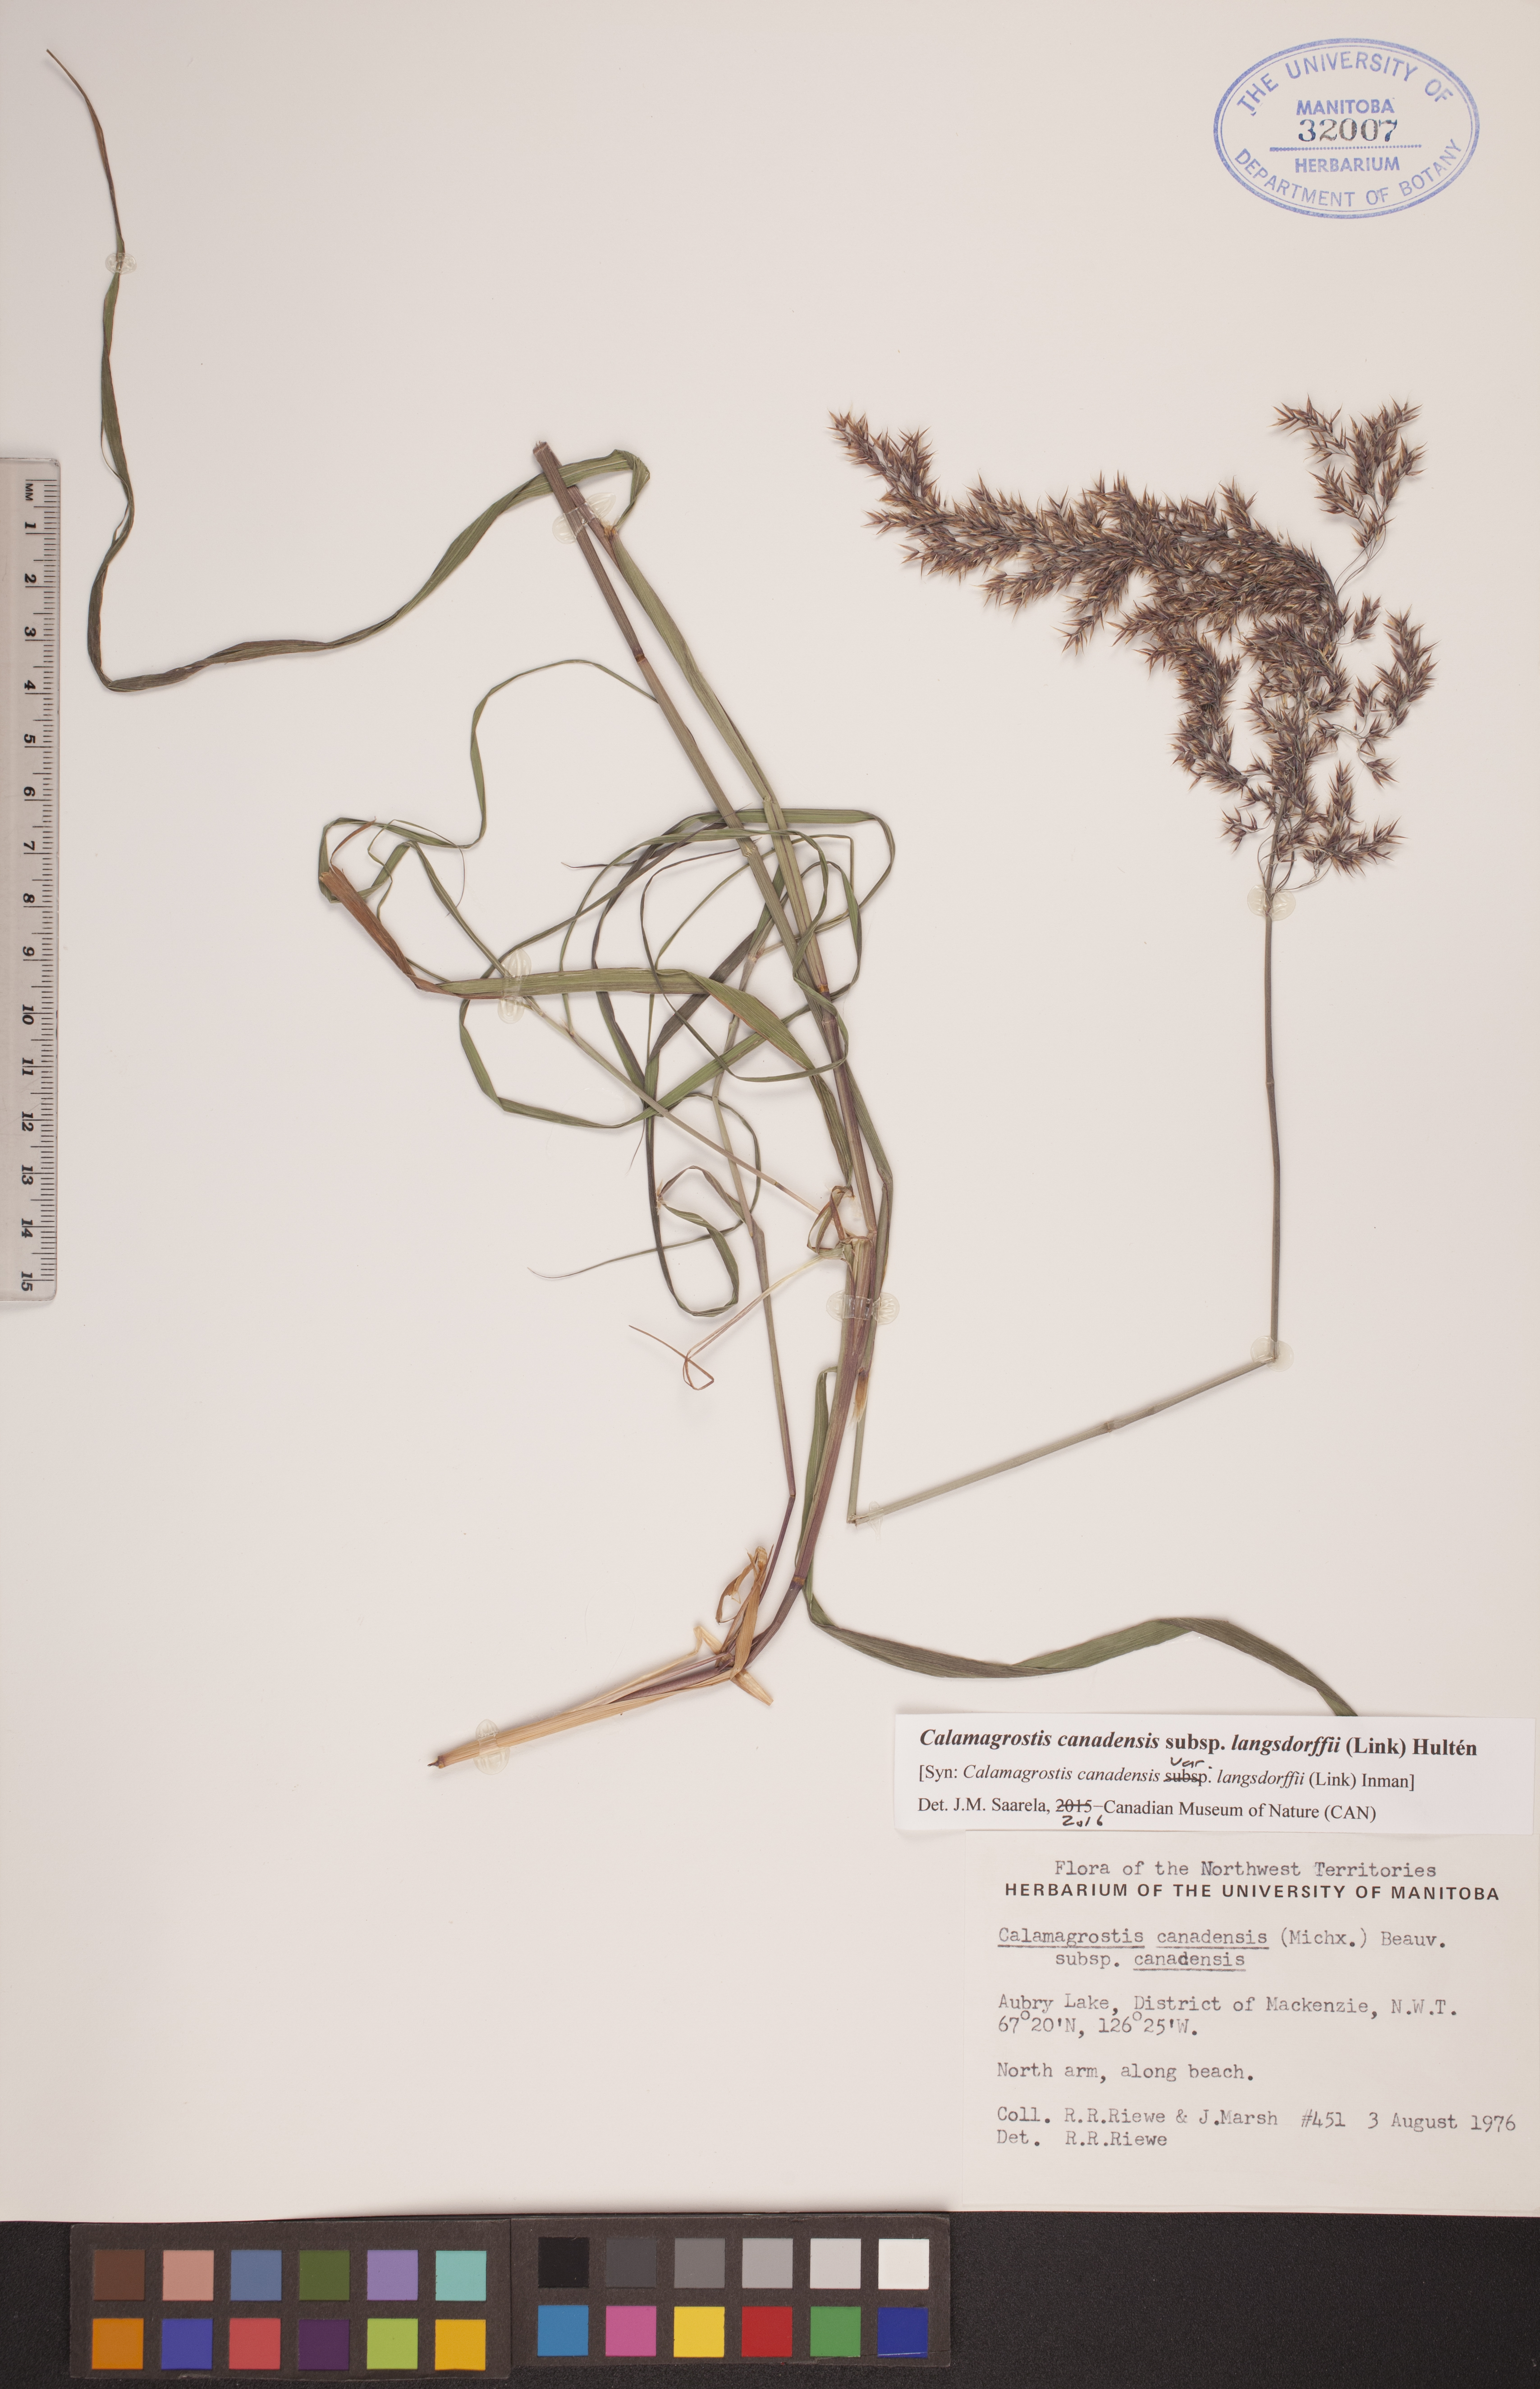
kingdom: Plantae
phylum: Tracheophyta
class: Liliopsida
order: Poales
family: Poaceae
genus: Calamagrostis
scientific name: Calamagrostis purpurea
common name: Scandinavian small-reed
